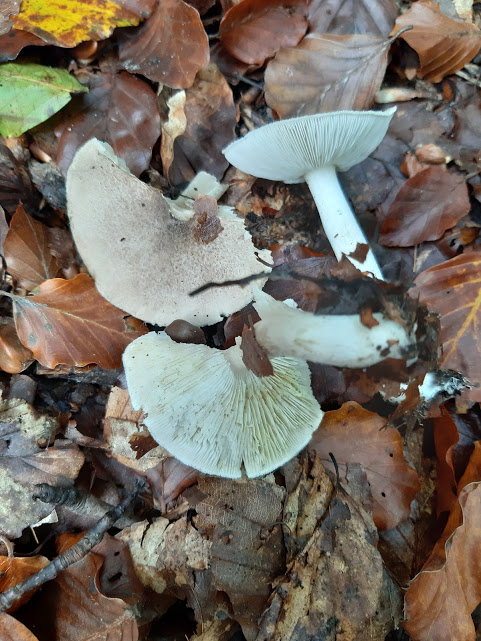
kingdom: Fungi
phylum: Basidiomycota
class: Agaricomycetes
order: Agaricales
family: Tricholomataceae
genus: Tricholoma
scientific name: Tricholoma scalpturatum
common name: gulplettet ridderhat
